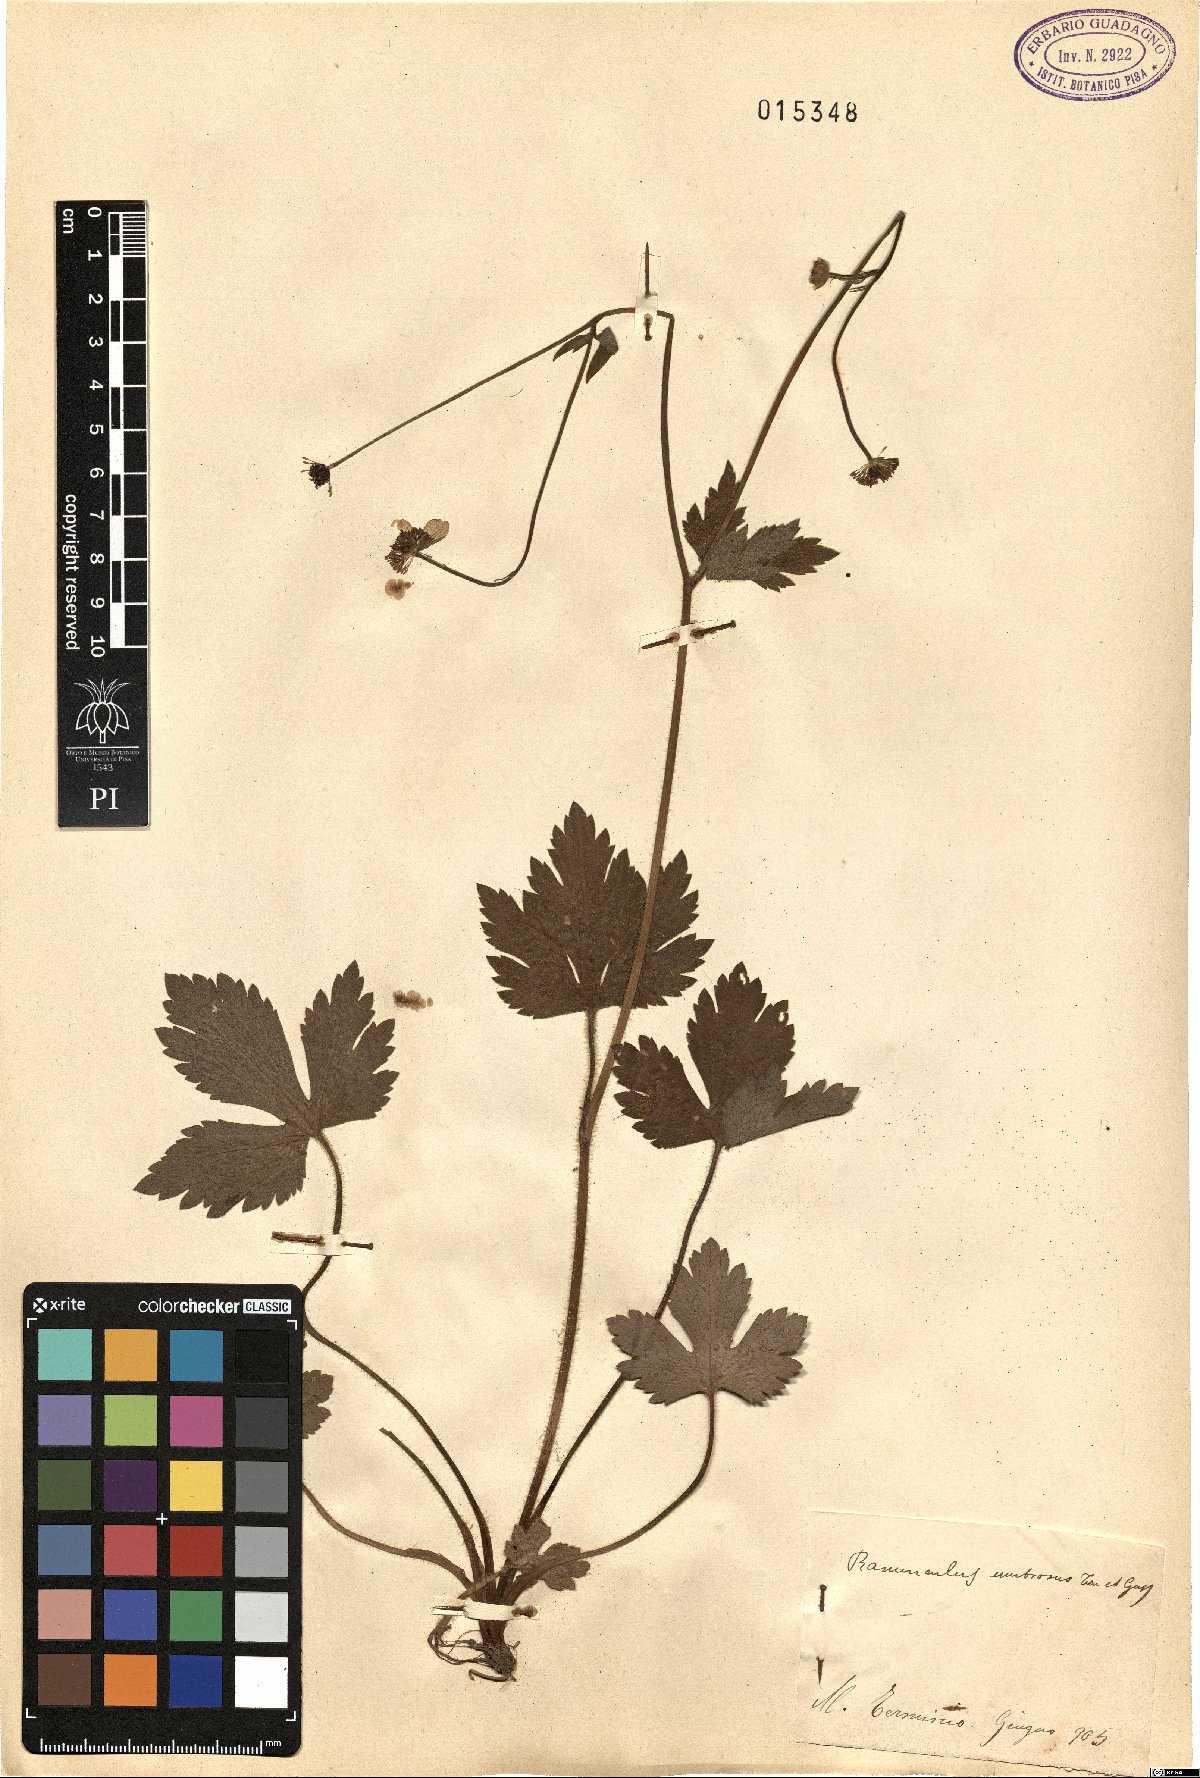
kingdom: Plantae
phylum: Tracheophyta
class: Magnoliopsida
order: Ranunculales
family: Ranunculaceae
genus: Ranunculus
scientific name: Ranunculus lanuginosus
